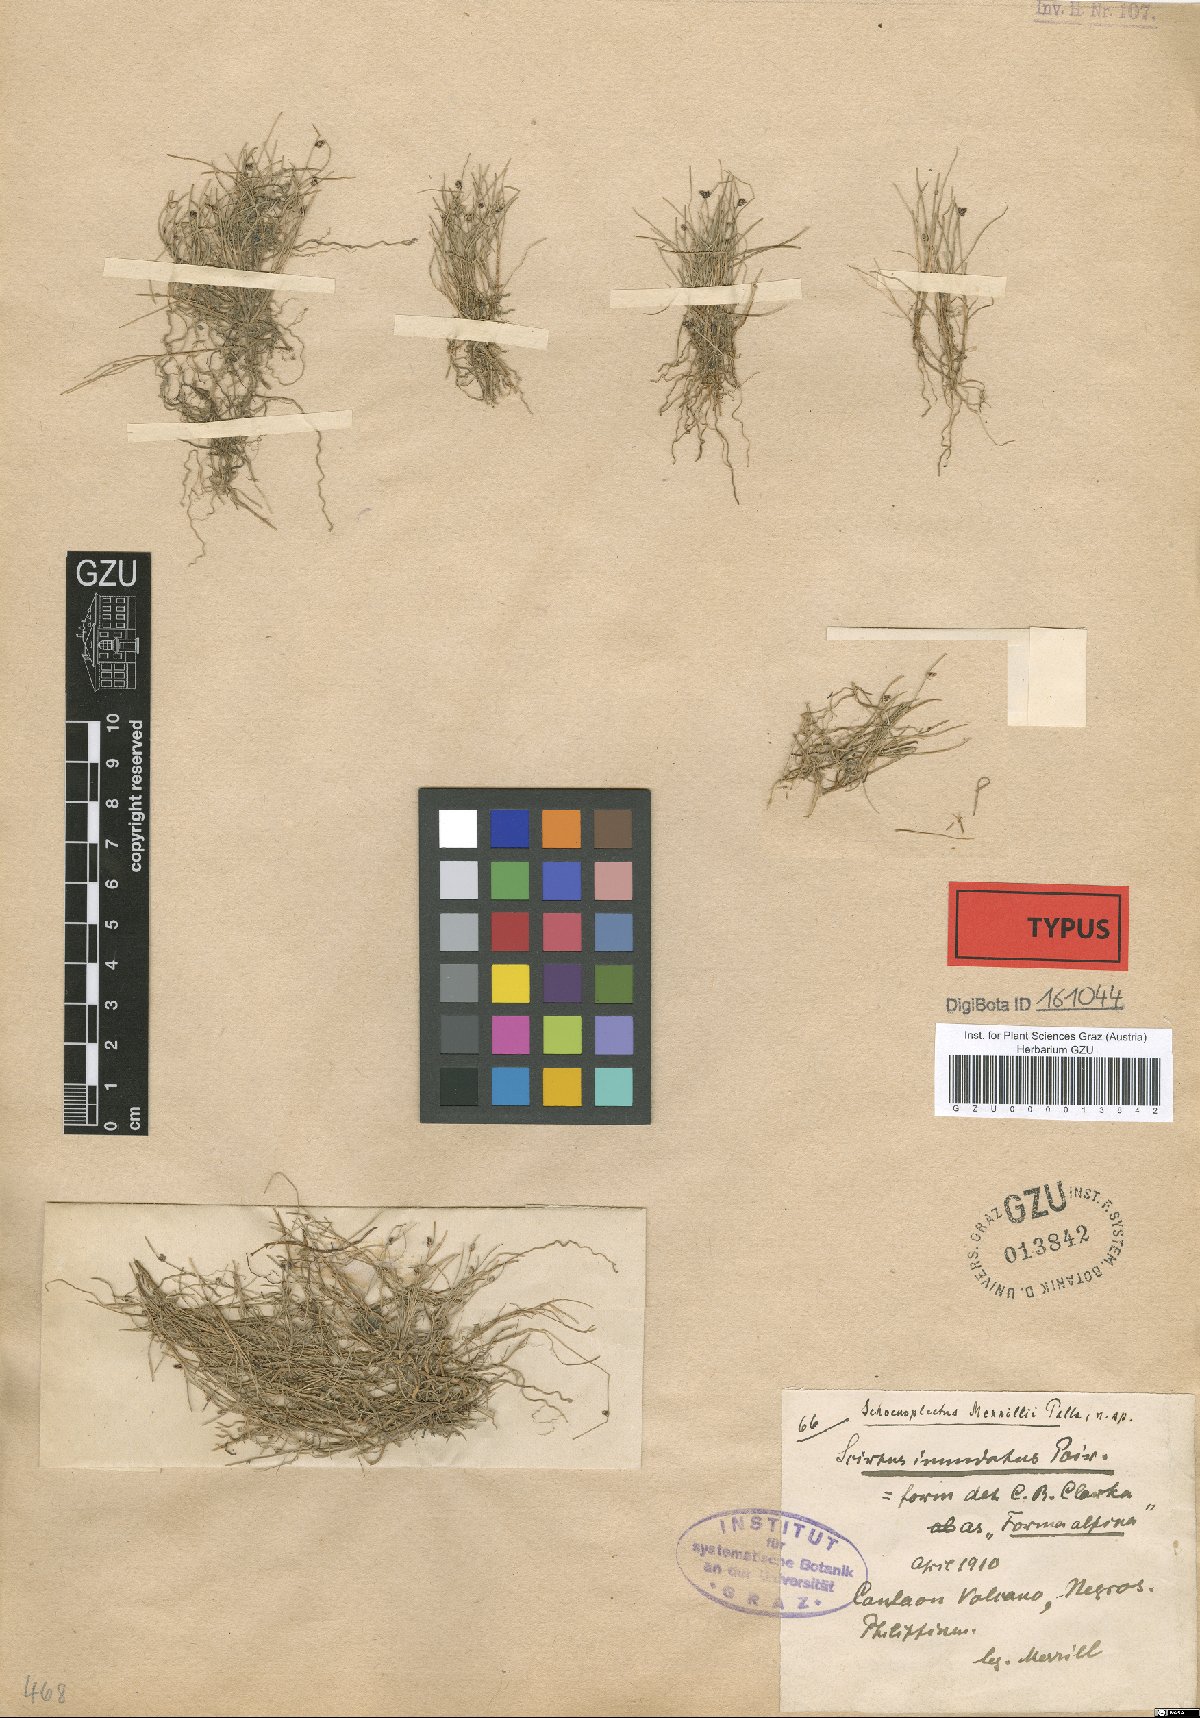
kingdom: Plantae
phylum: Tracheophyta
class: Liliopsida
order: Poales
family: Cyperaceae
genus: Isolepis
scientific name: Isolepis subtilissima
